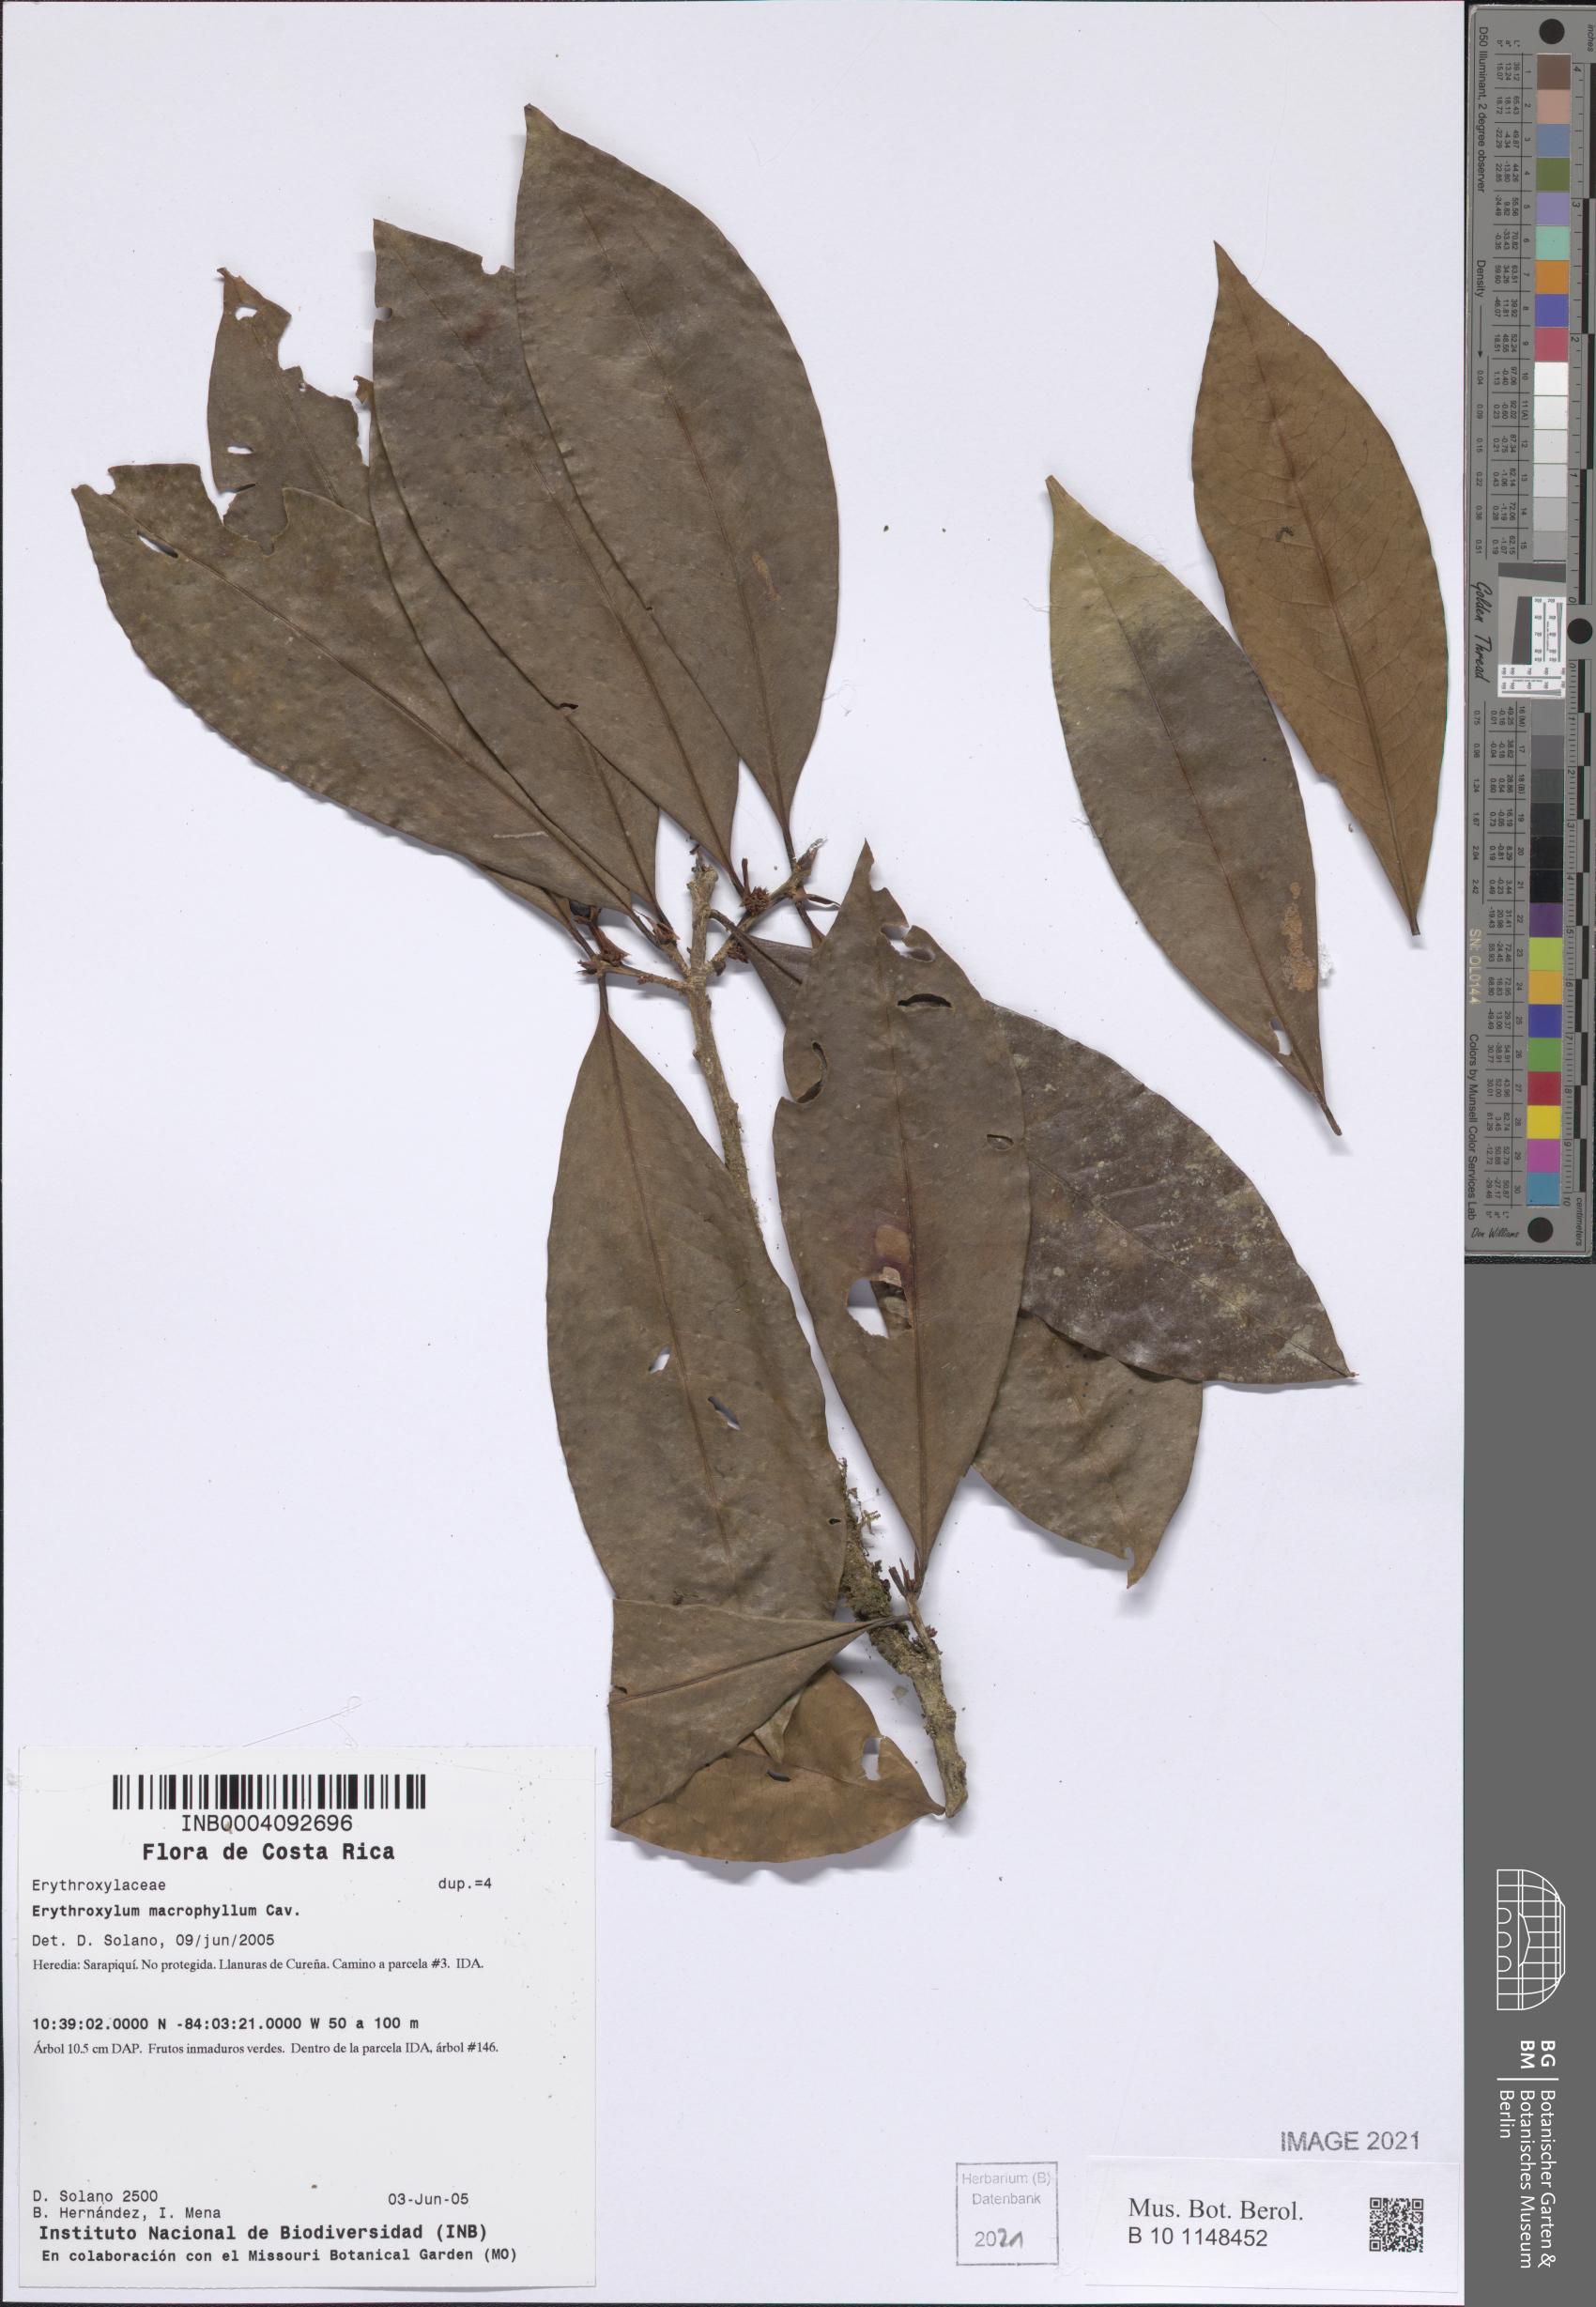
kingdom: Plantae
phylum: Tracheophyta
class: Magnoliopsida
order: Malpighiales
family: Erythroxylaceae
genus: Erythroxylum
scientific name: Erythroxylum macrophyllum
